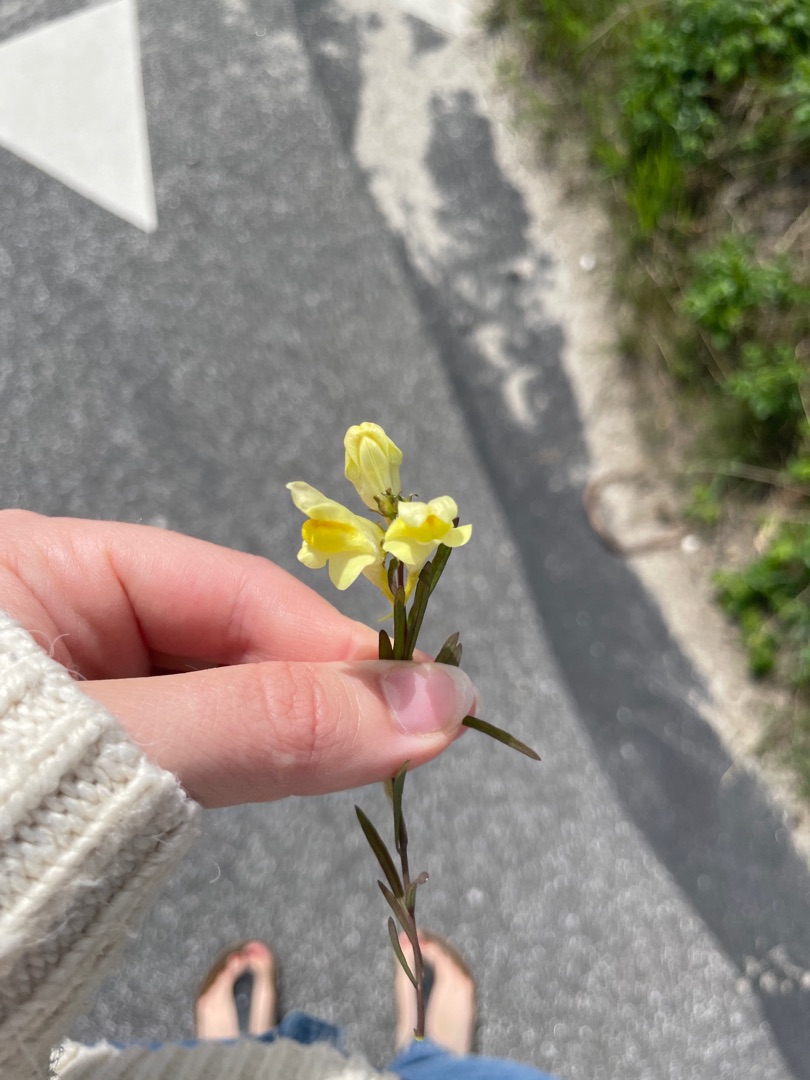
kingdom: Plantae
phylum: Tracheophyta
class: Magnoliopsida
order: Lamiales
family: Plantaginaceae
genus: Linaria
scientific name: Linaria vulgaris
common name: Almindelig torskemund
